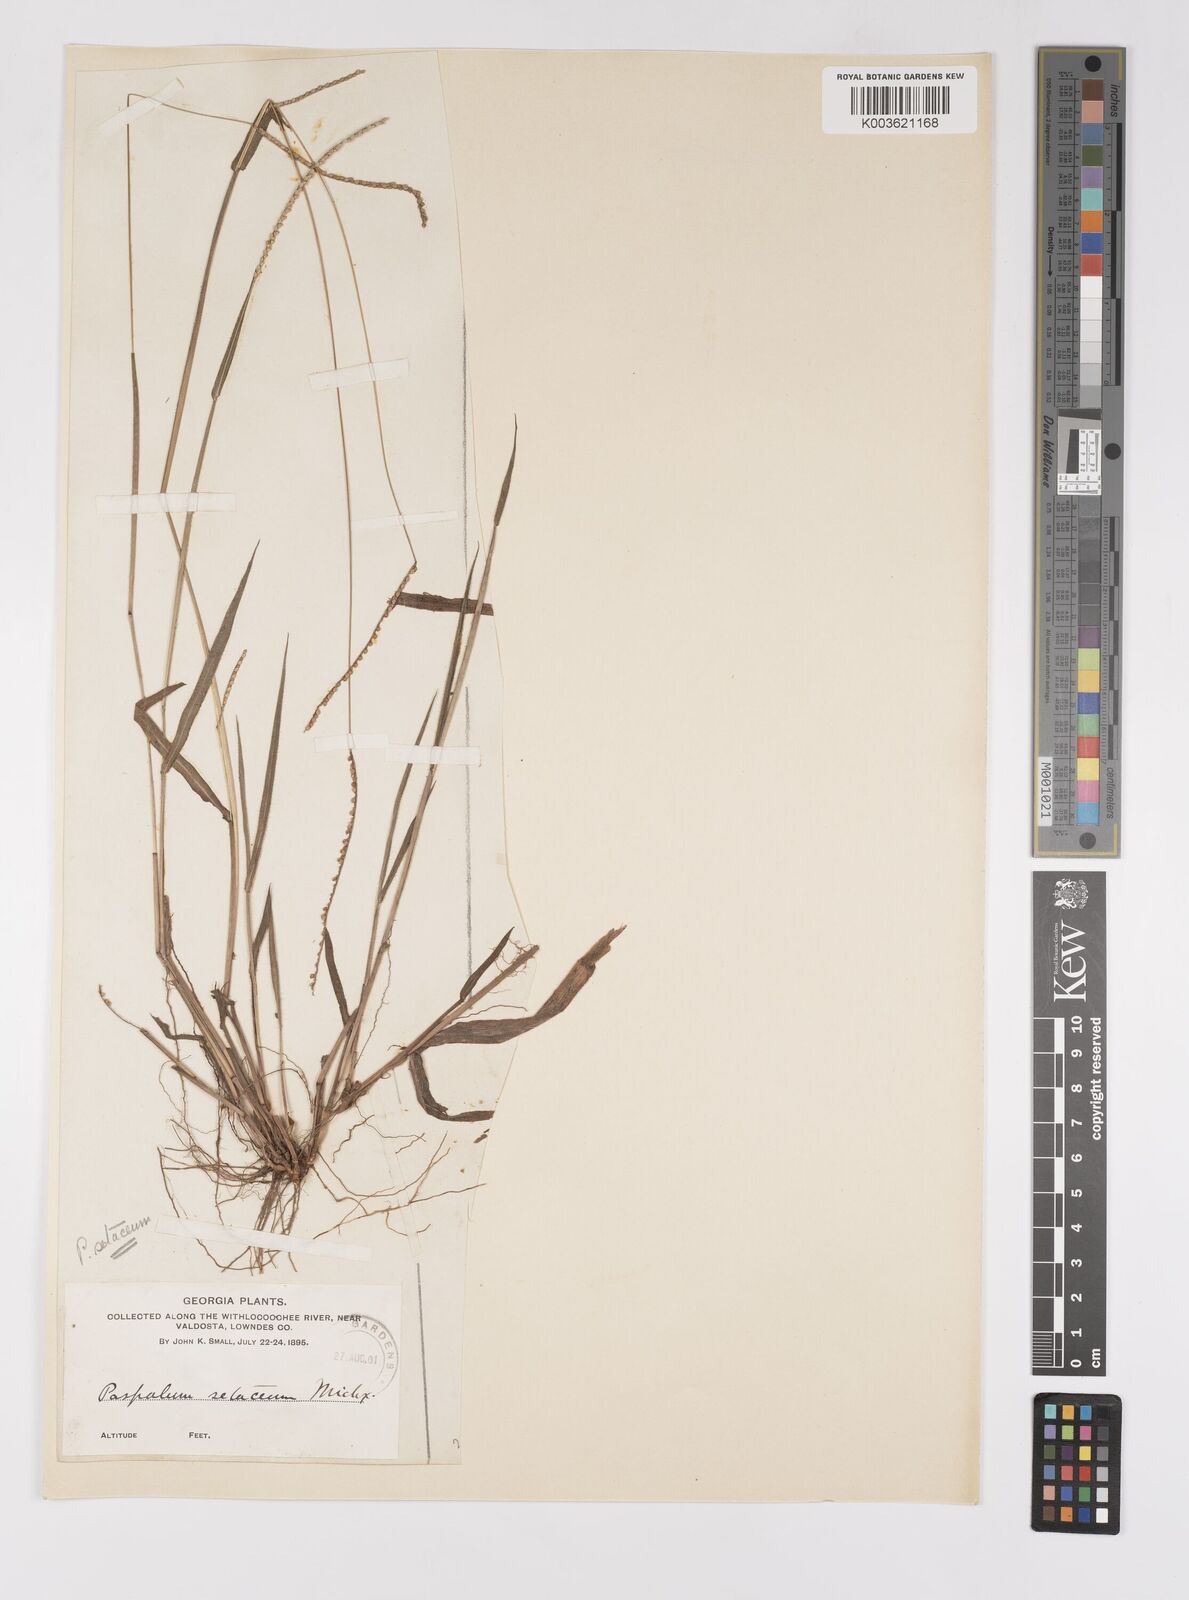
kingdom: Plantae
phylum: Tracheophyta
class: Liliopsida
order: Poales
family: Poaceae
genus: Paspalum
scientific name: Paspalum setaceum
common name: Slender paspalum
